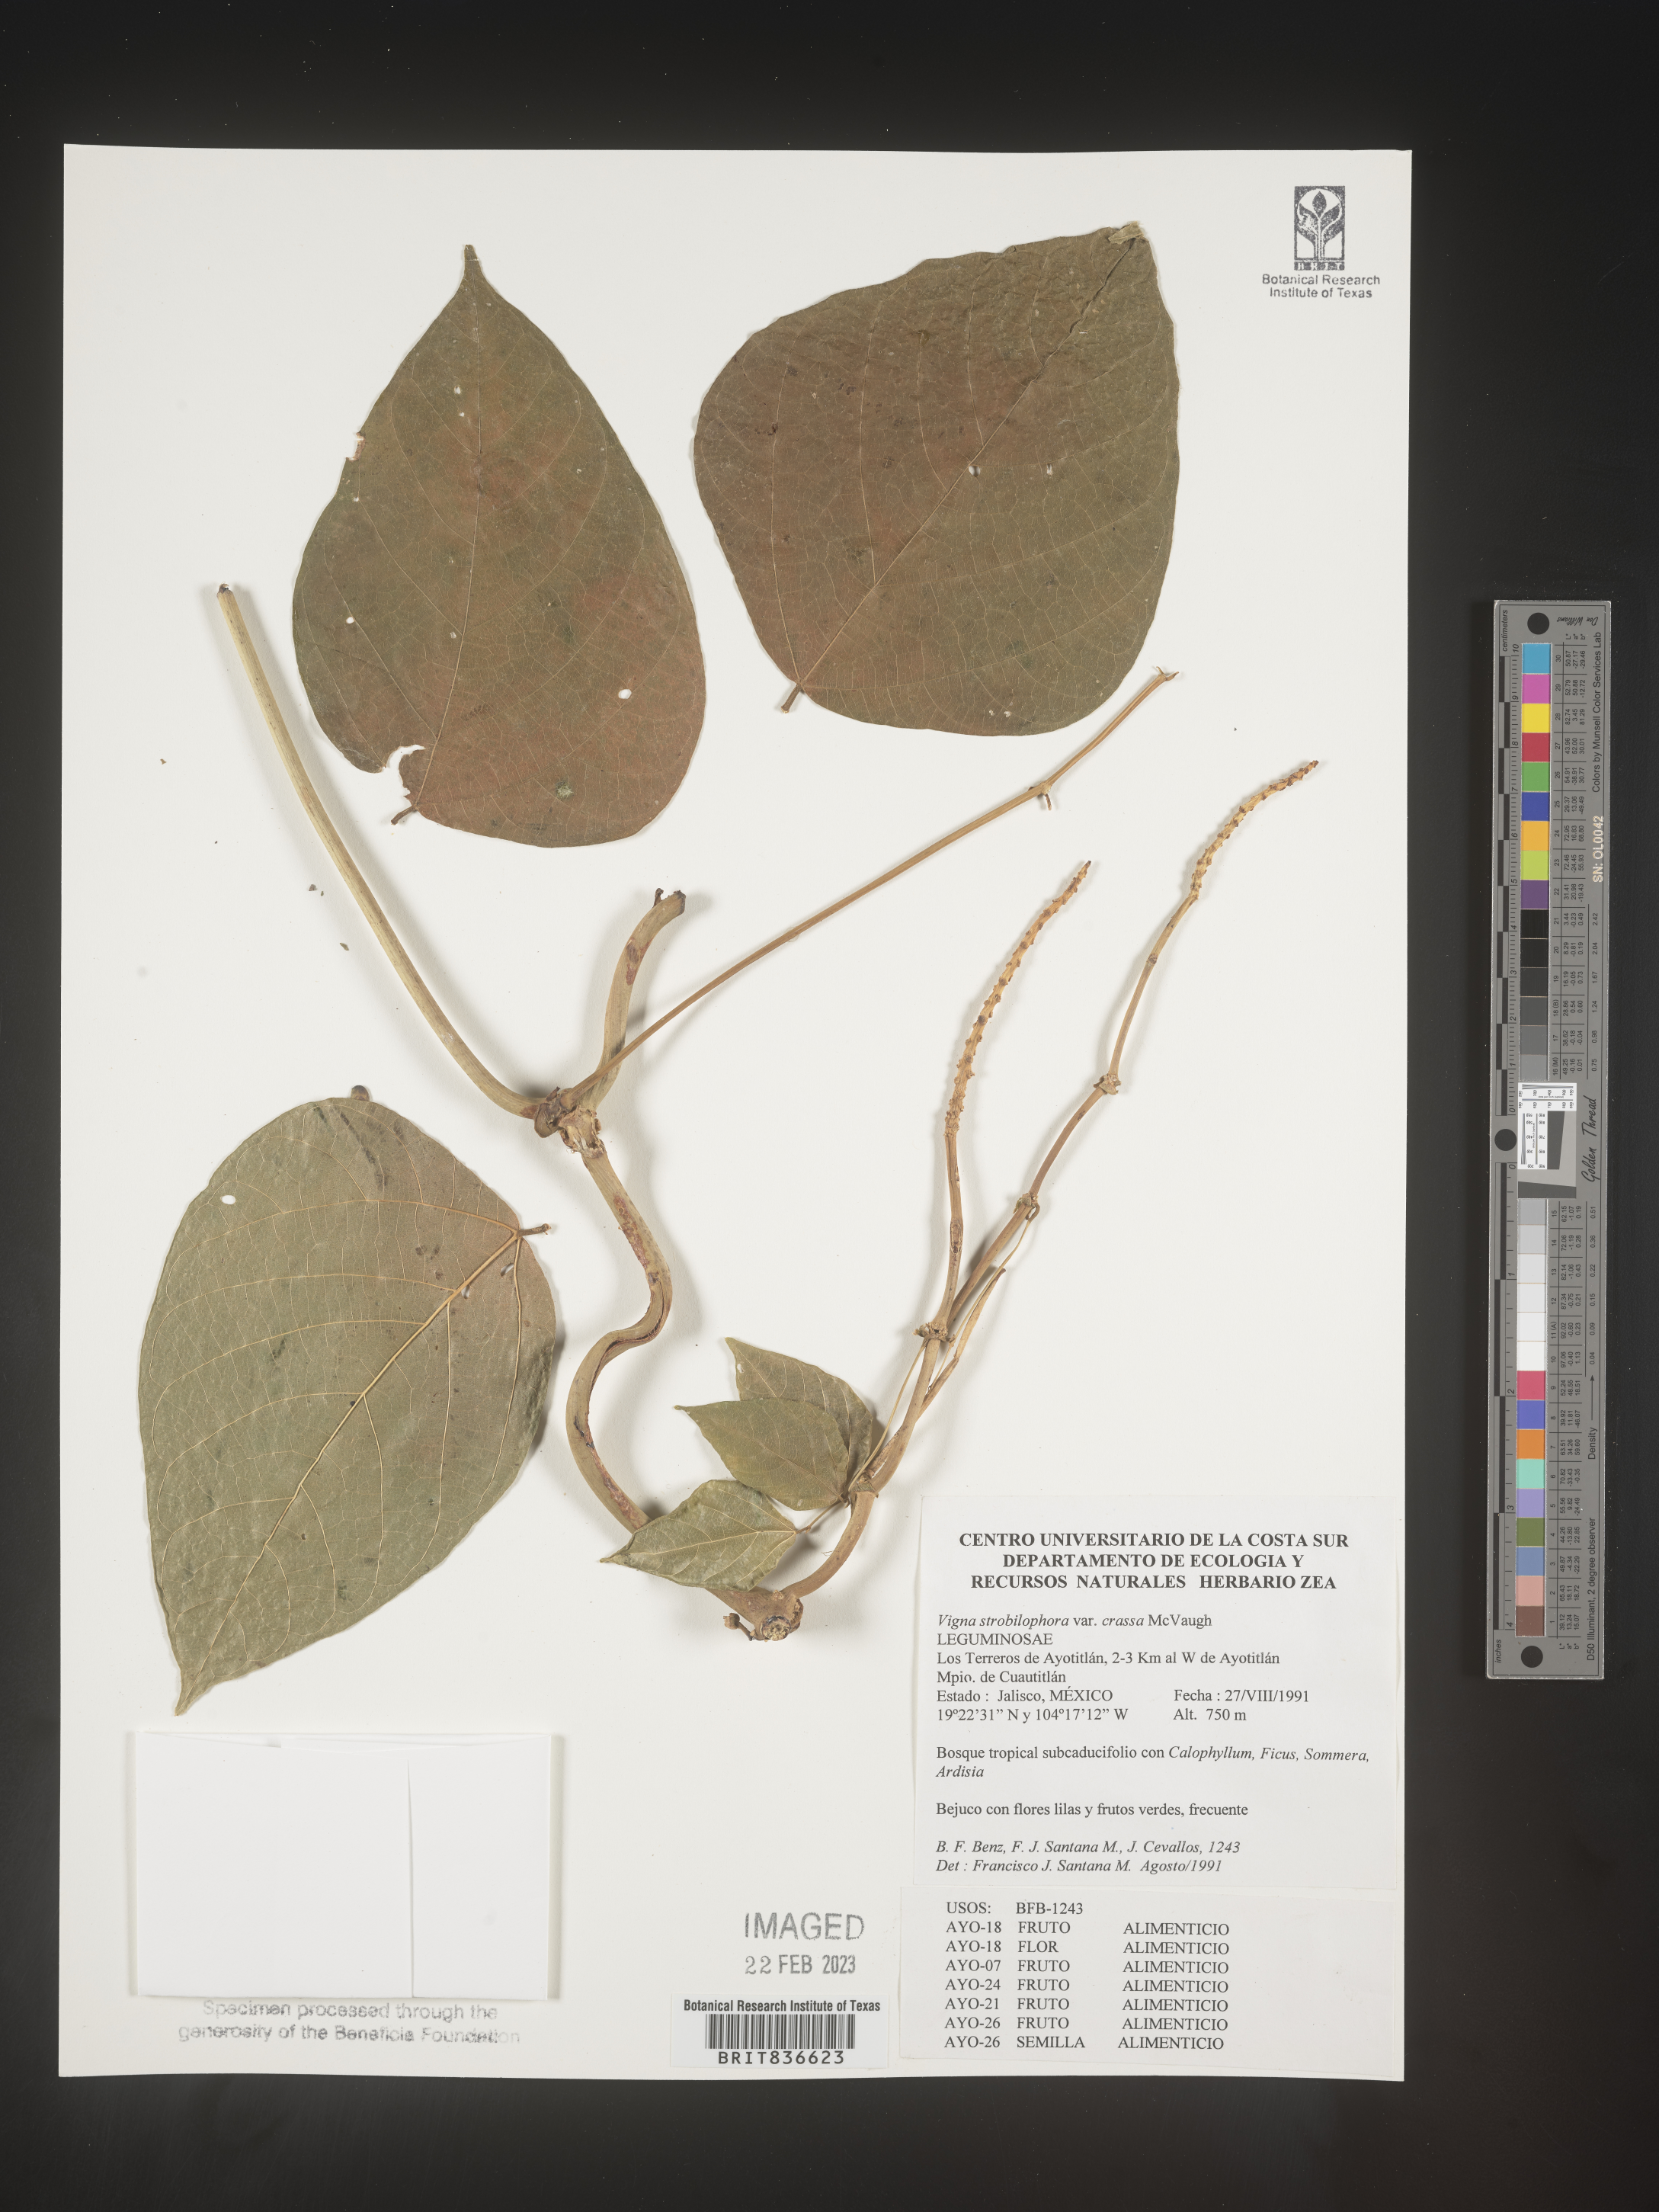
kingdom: Plantae
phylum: Tracheophyta
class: Magnoliopsida
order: Fabales
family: Fabaceae
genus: Vigna
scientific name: Vigna
